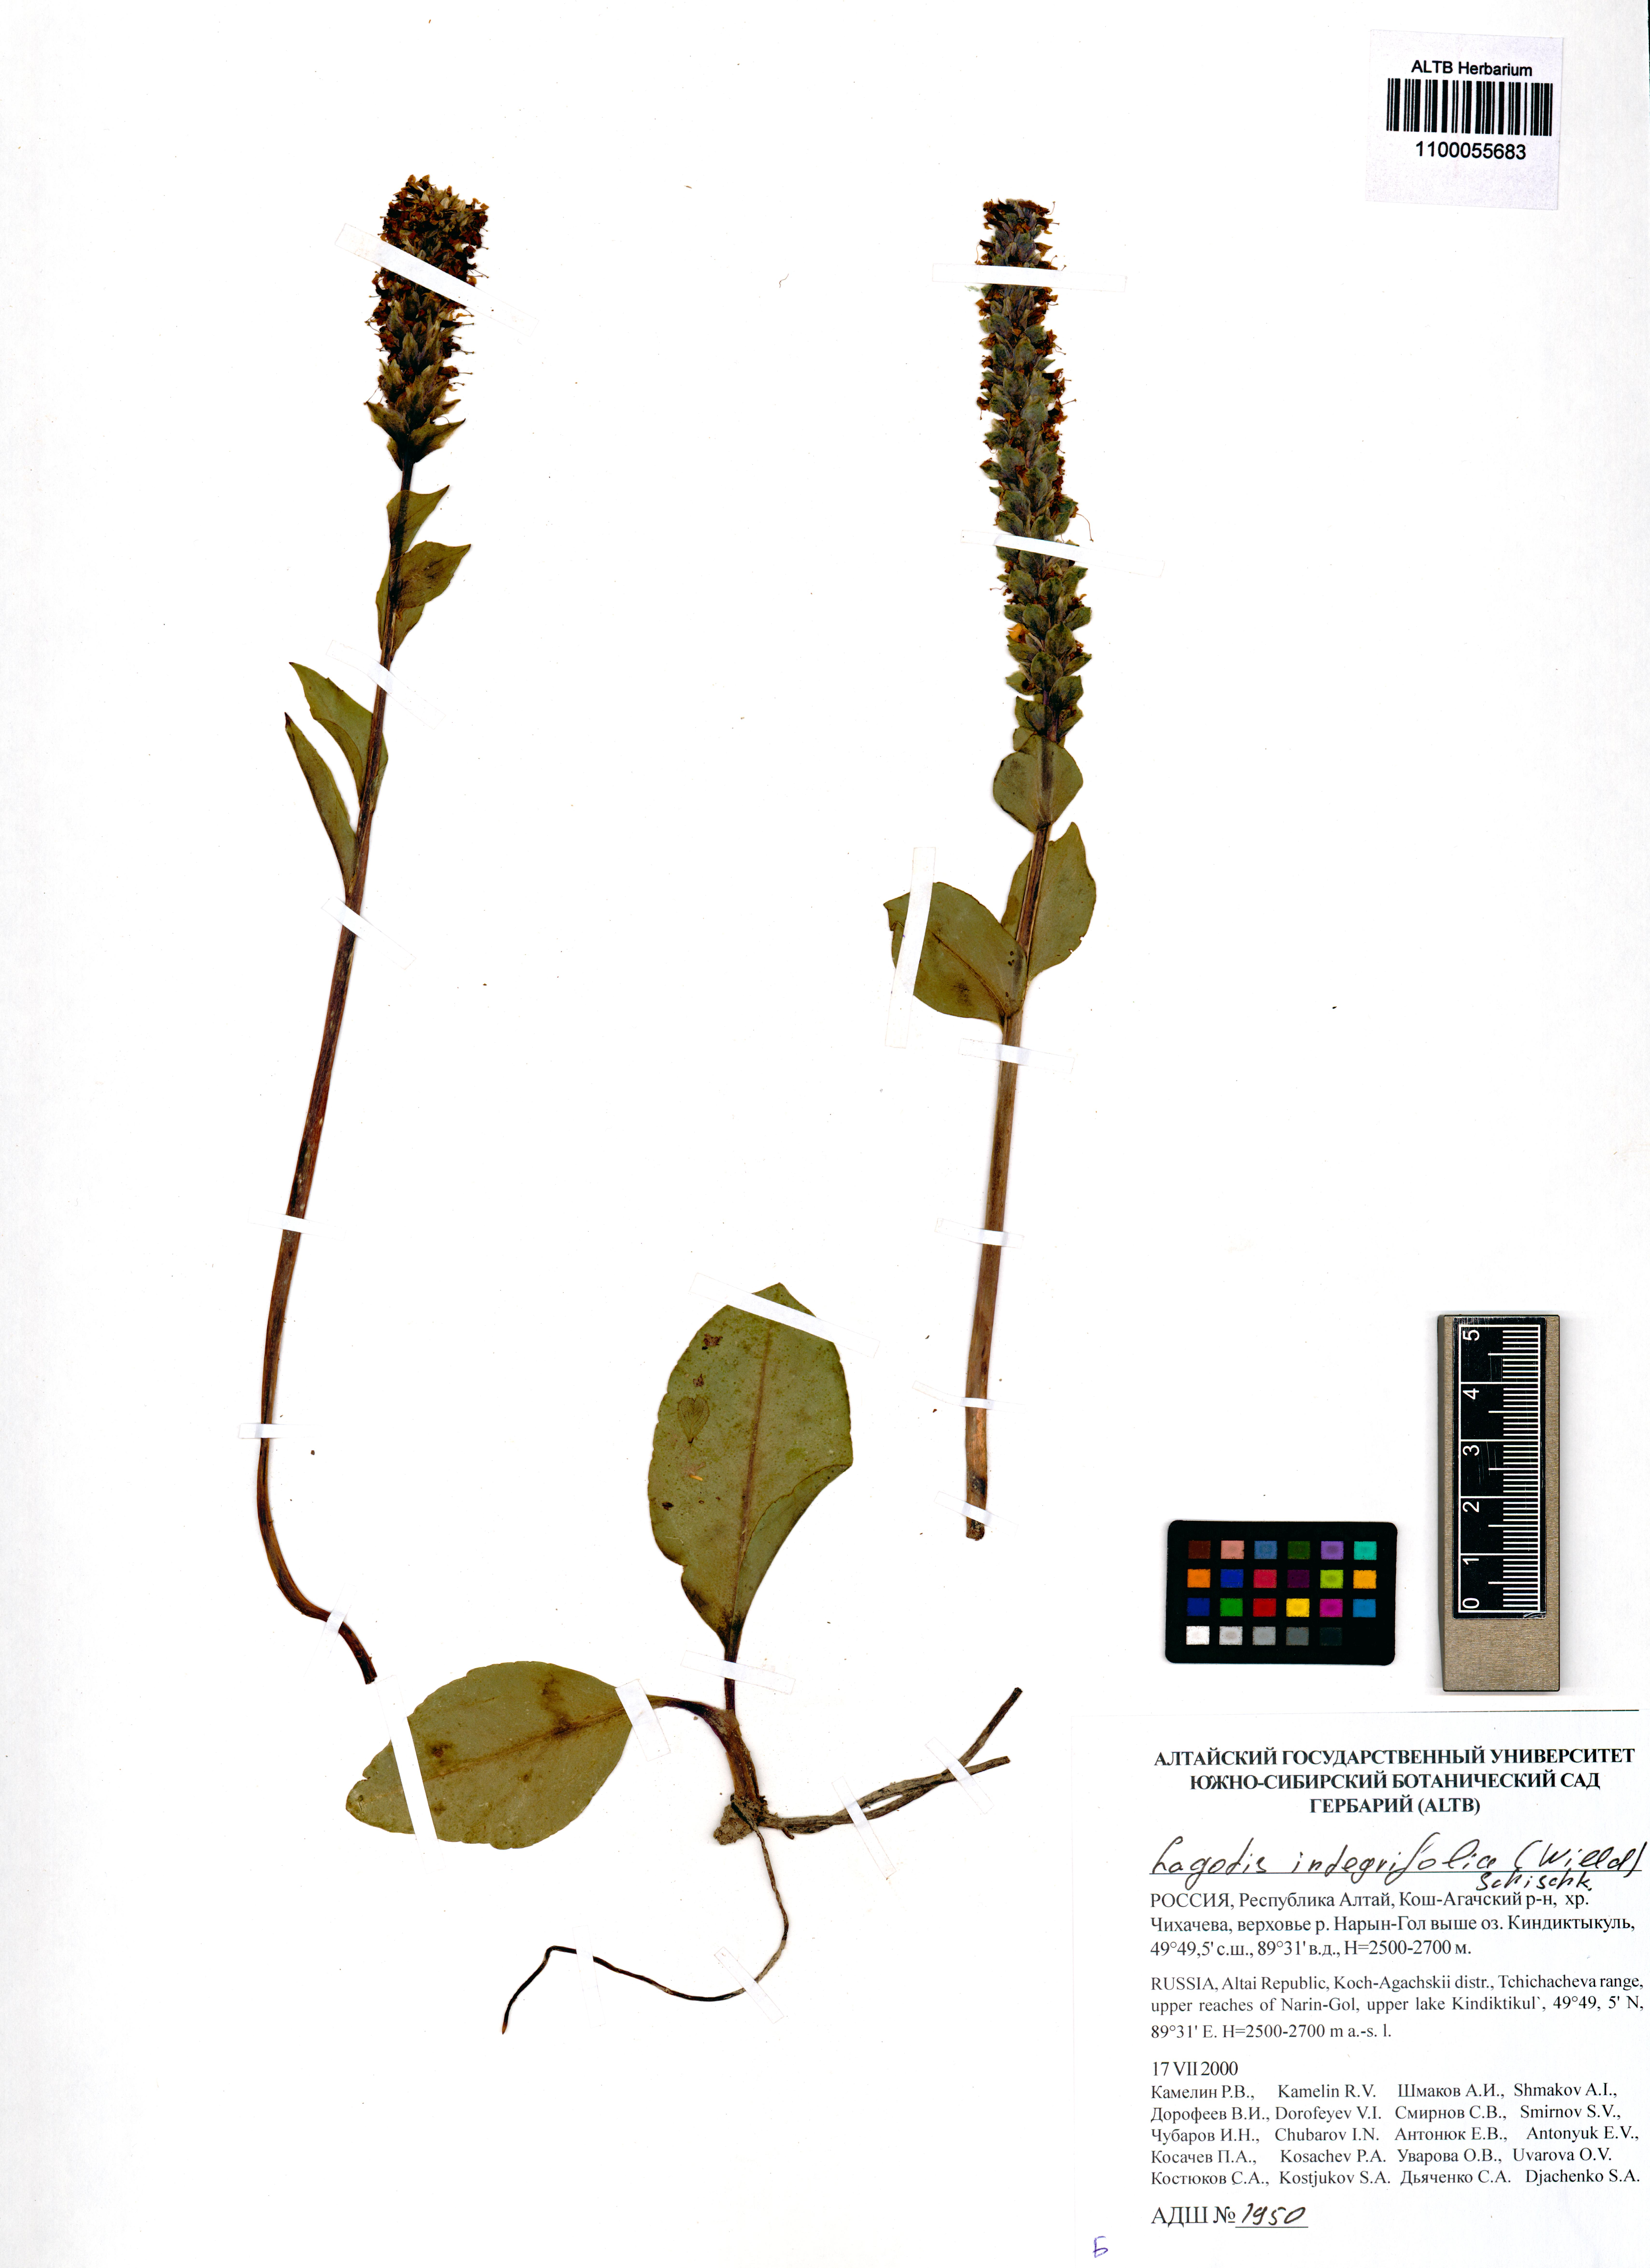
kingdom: Plantae
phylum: Tracheophyta
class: Magnoliopsida
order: Lamiales
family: Plantaginaceae
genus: Lagotis
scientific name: Lagotis integrifolia
